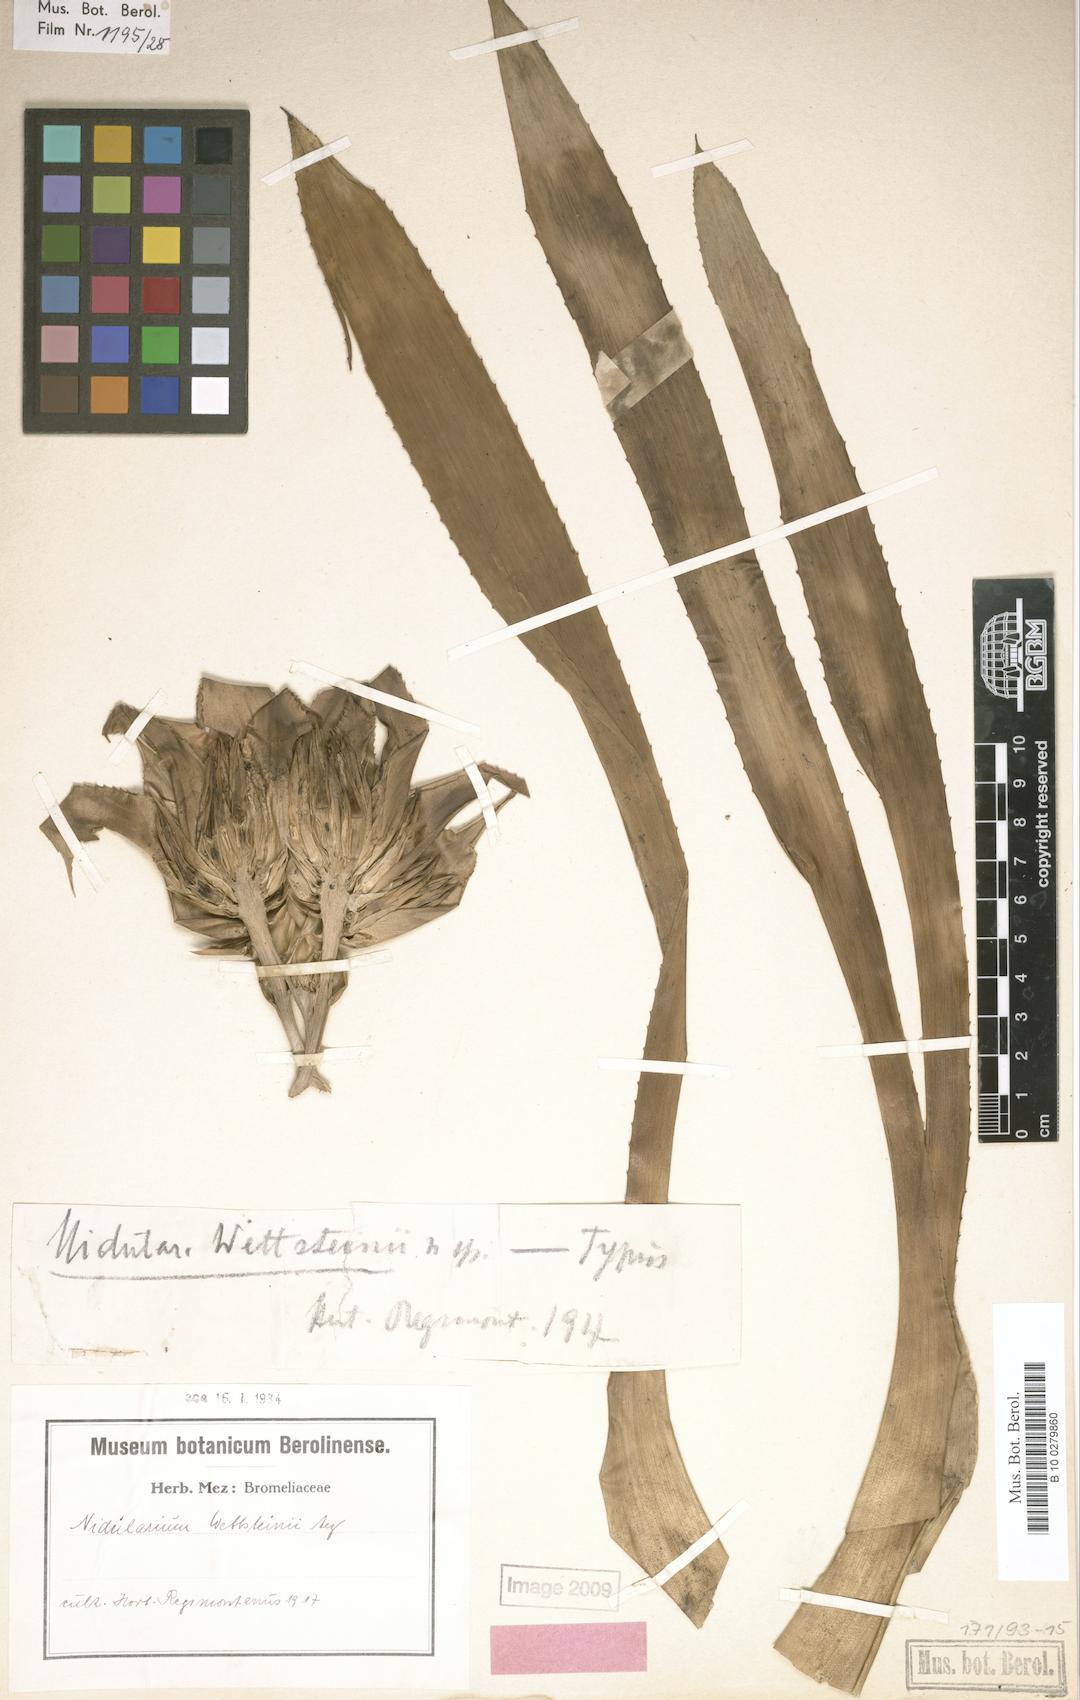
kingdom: Plantae
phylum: Tracheophyta
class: Liliopsida
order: Poales
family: Bromeliaceae
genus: Nidularium
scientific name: Nidularium purpureum
